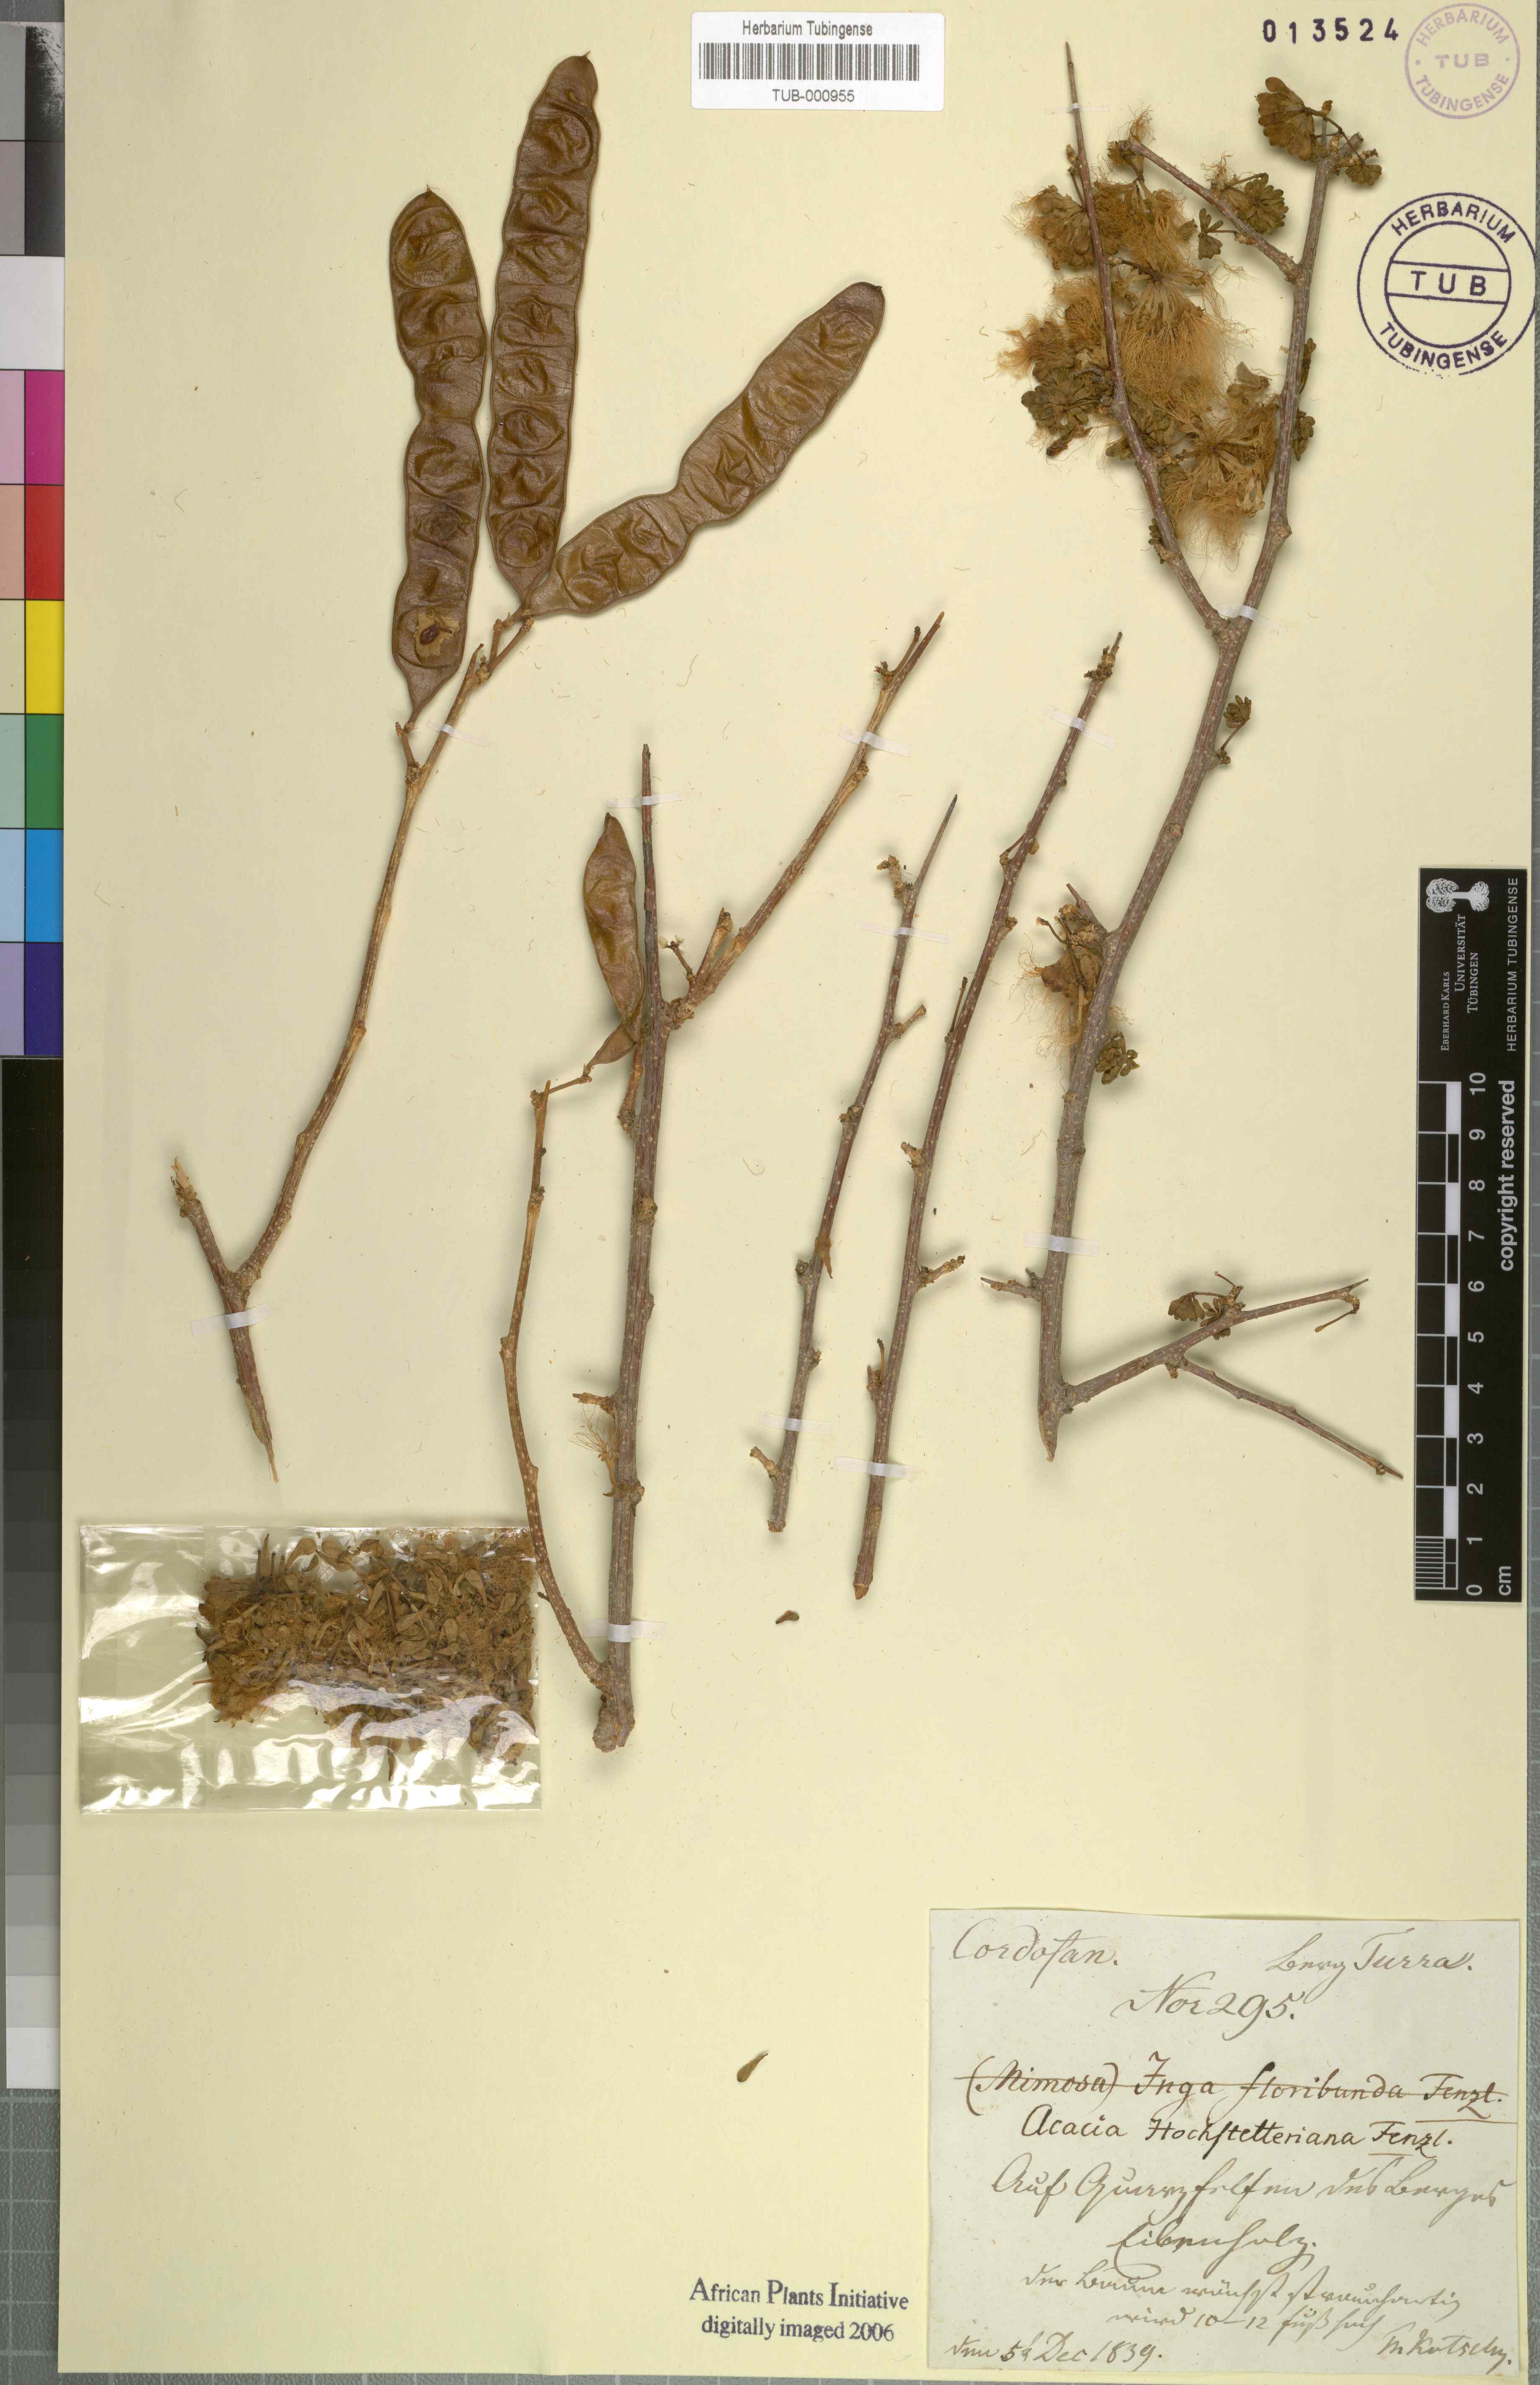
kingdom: Plantae
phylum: Tracheophyta
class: Magnoliopsida
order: Fabales
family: Fabaceae
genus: Acacia
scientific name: Acacia
